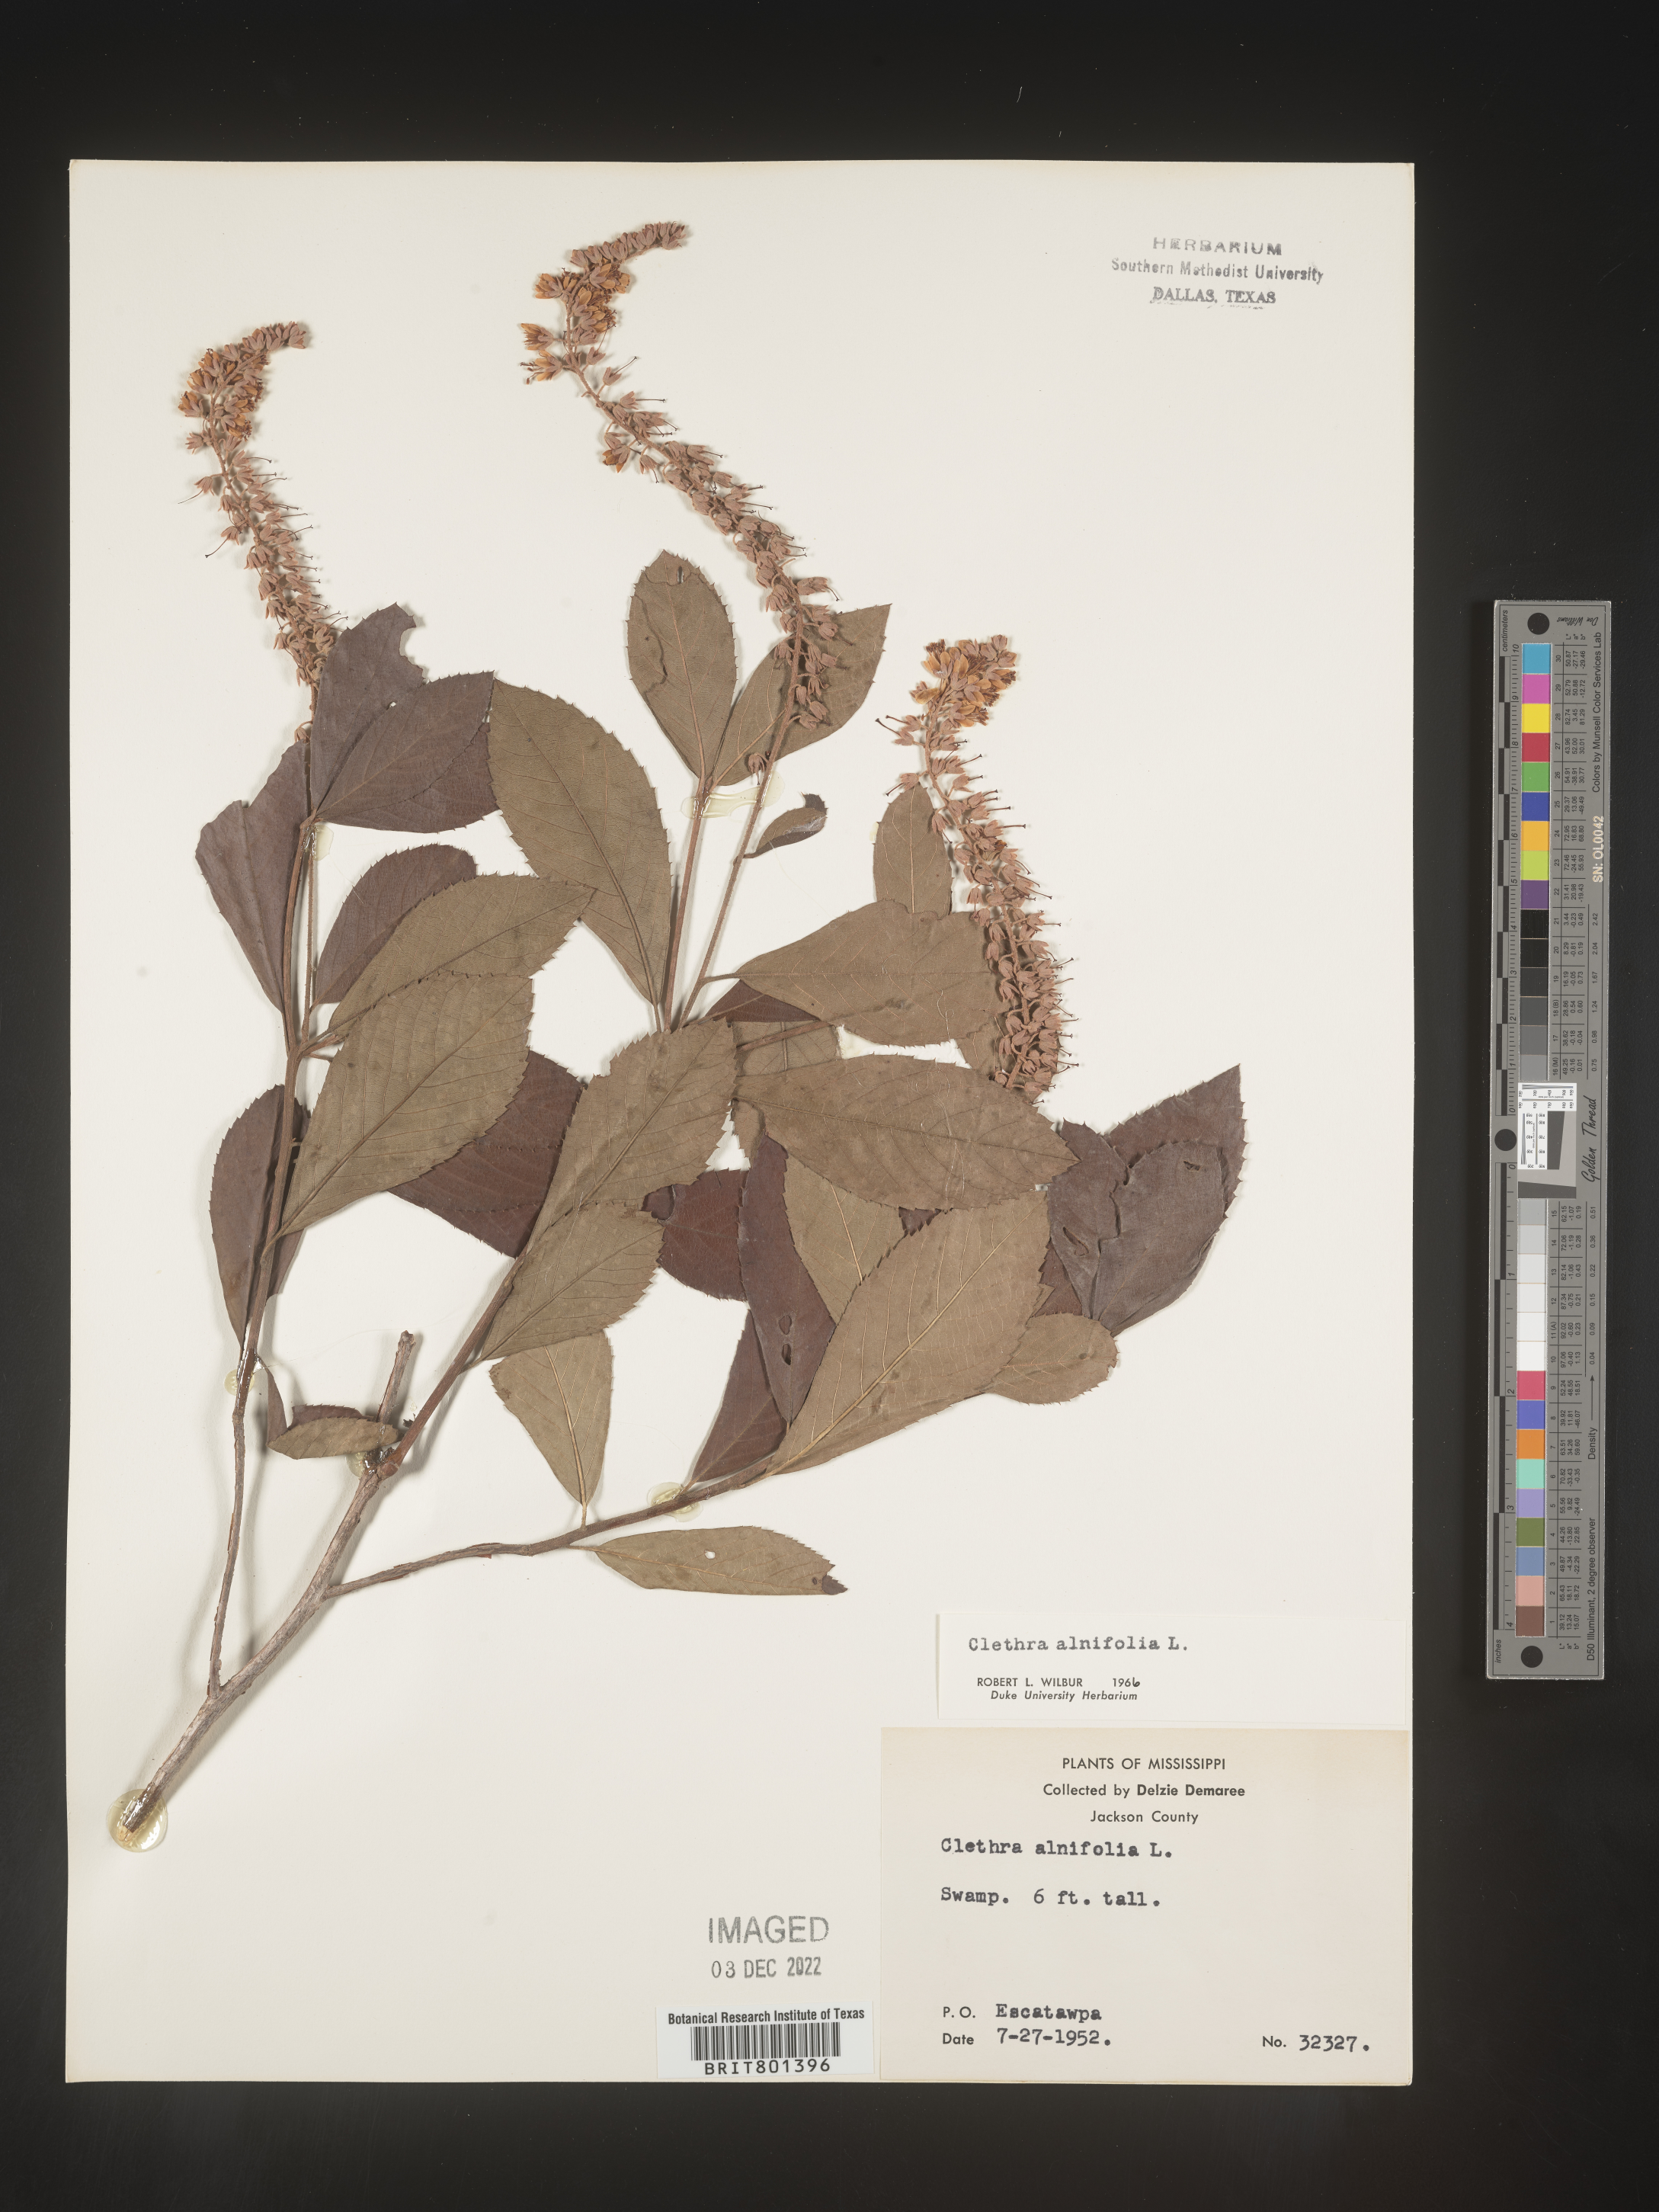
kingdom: Plantae
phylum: Tracheophyta
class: Magnoliopsida
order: Ericales
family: Clethraceae
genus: Clethra
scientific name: Clethra alnifolia
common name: Sweet pepperbush
